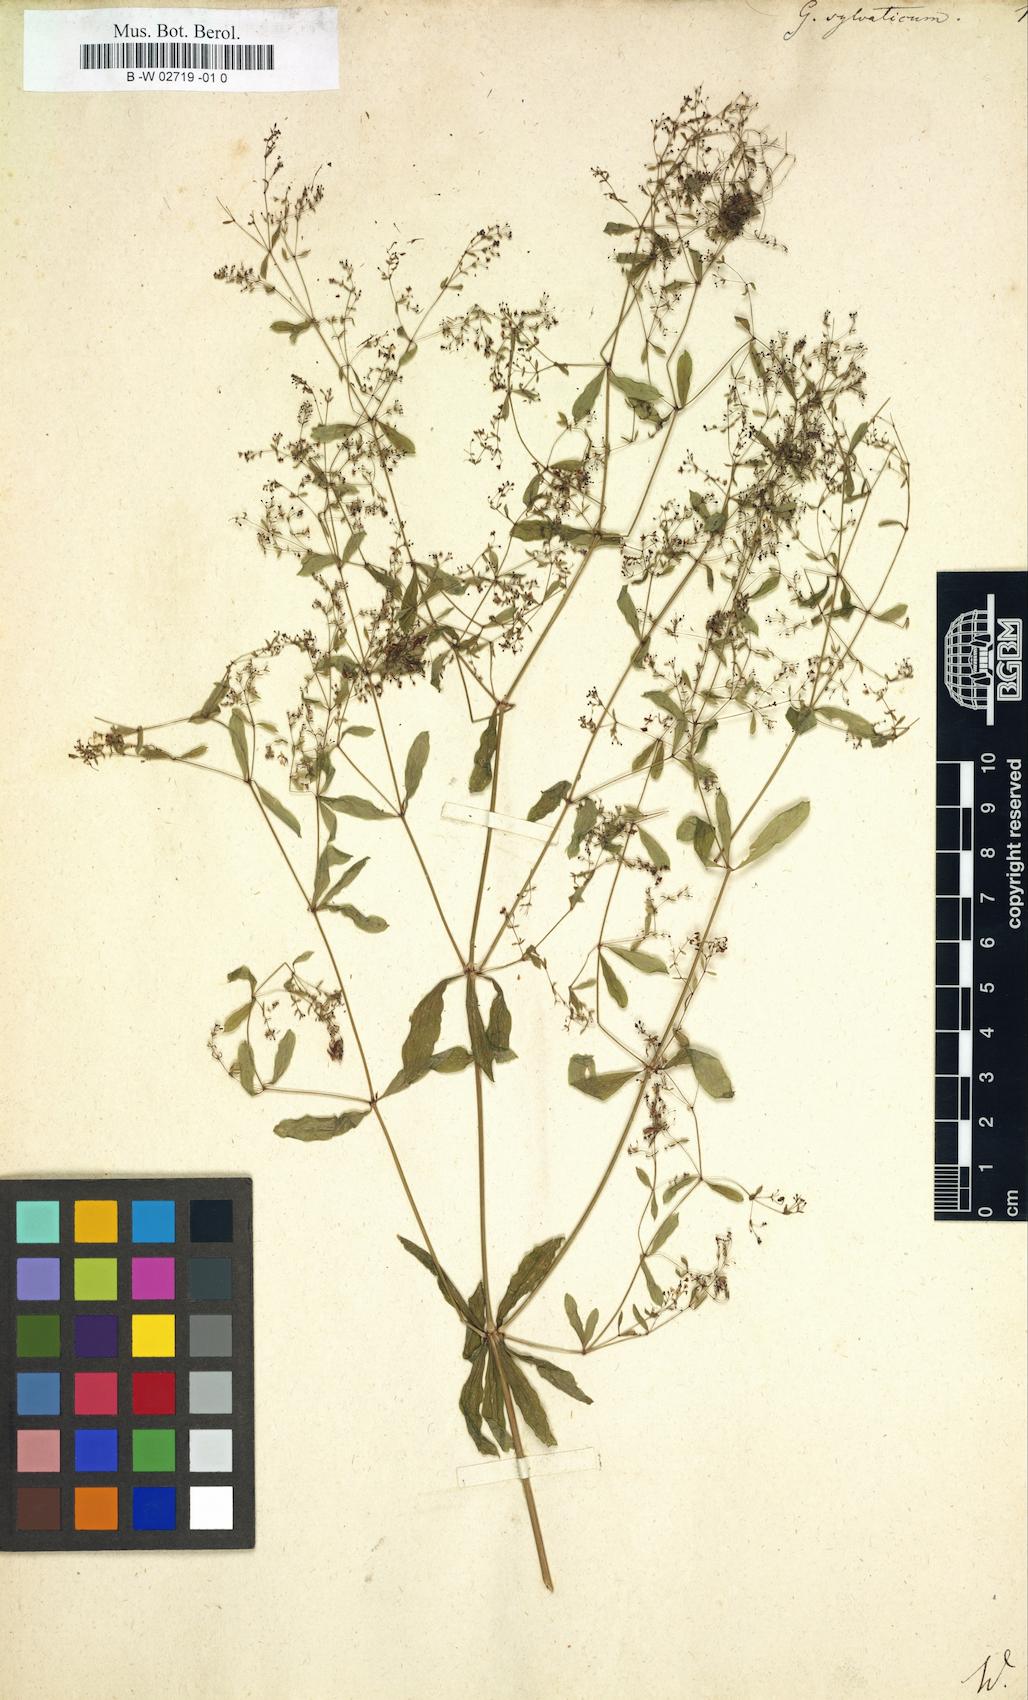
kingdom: Plantae
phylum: Tracheophyta
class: Magnoliopsida
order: Gentianales
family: Rubiaceae
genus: Galium
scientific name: Galium sylvaticum
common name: Wood bedstraw
